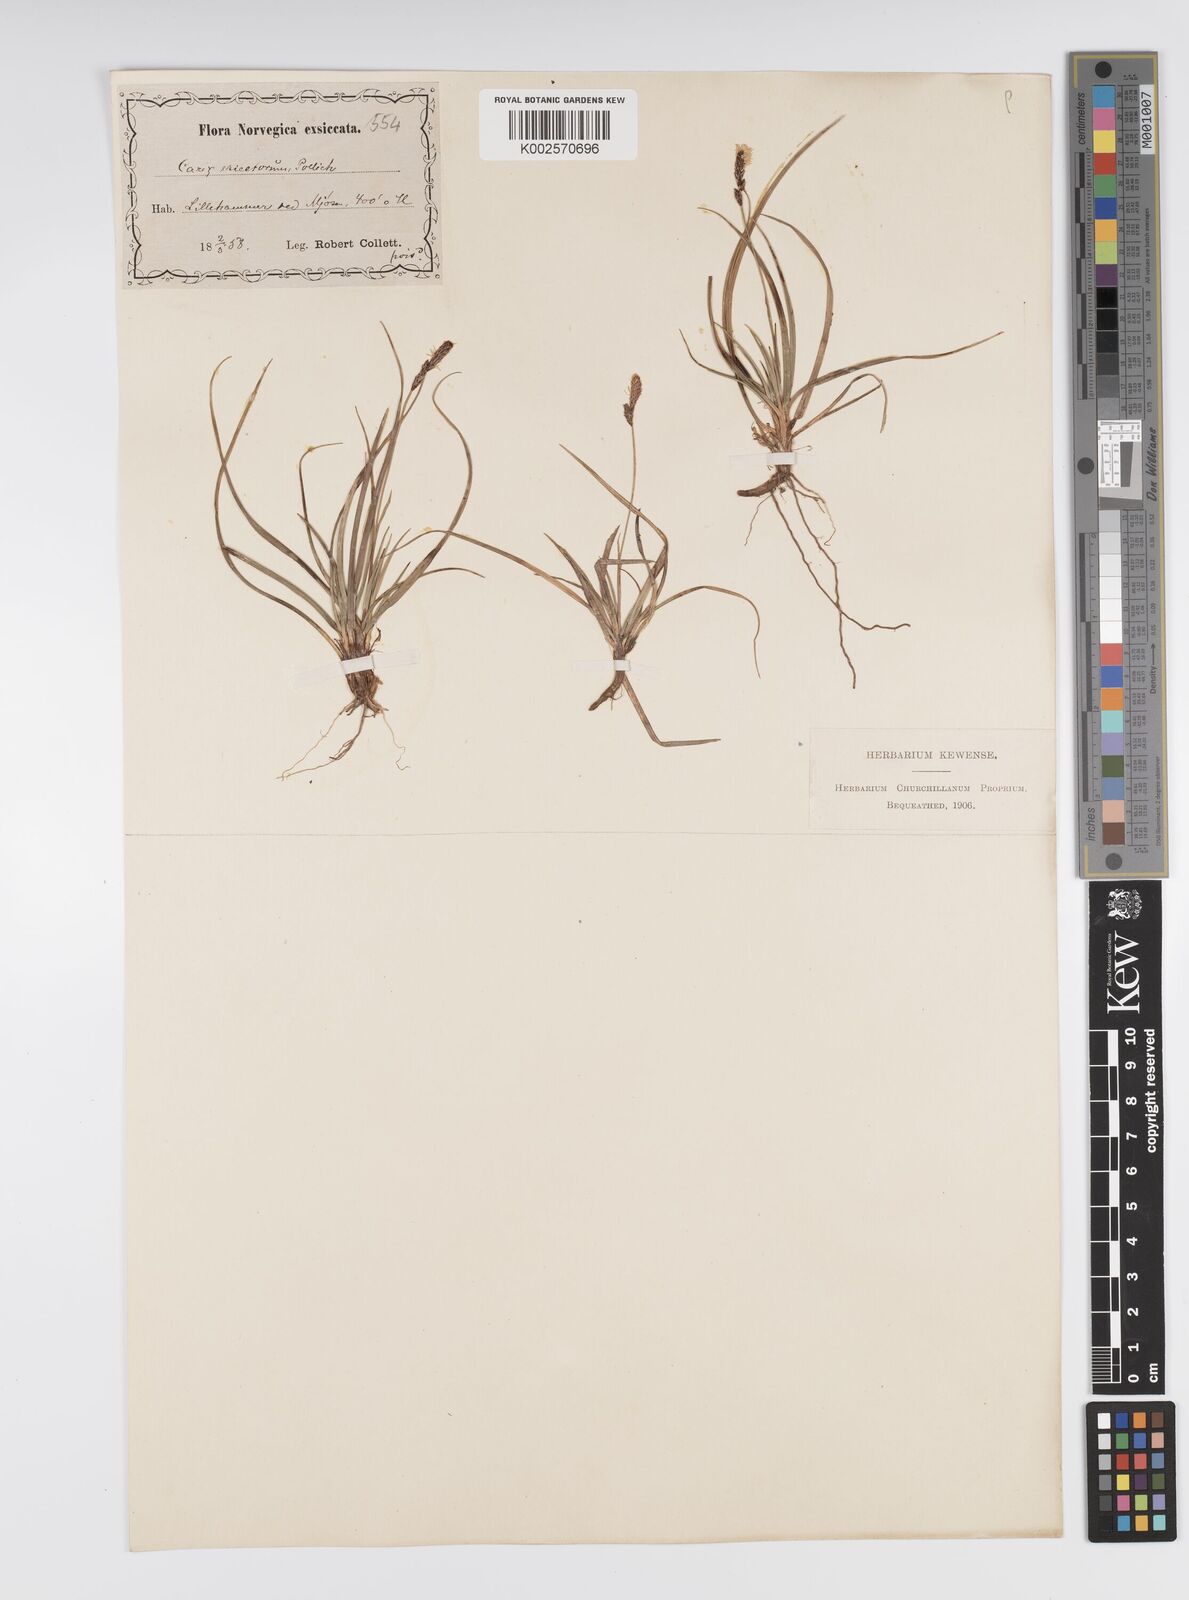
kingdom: Plantae
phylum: Tracheophyta
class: Liliopsida
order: Poales
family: Cyperaceae
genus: Carex
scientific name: Carex ericetorum
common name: Rare spring-sedge
